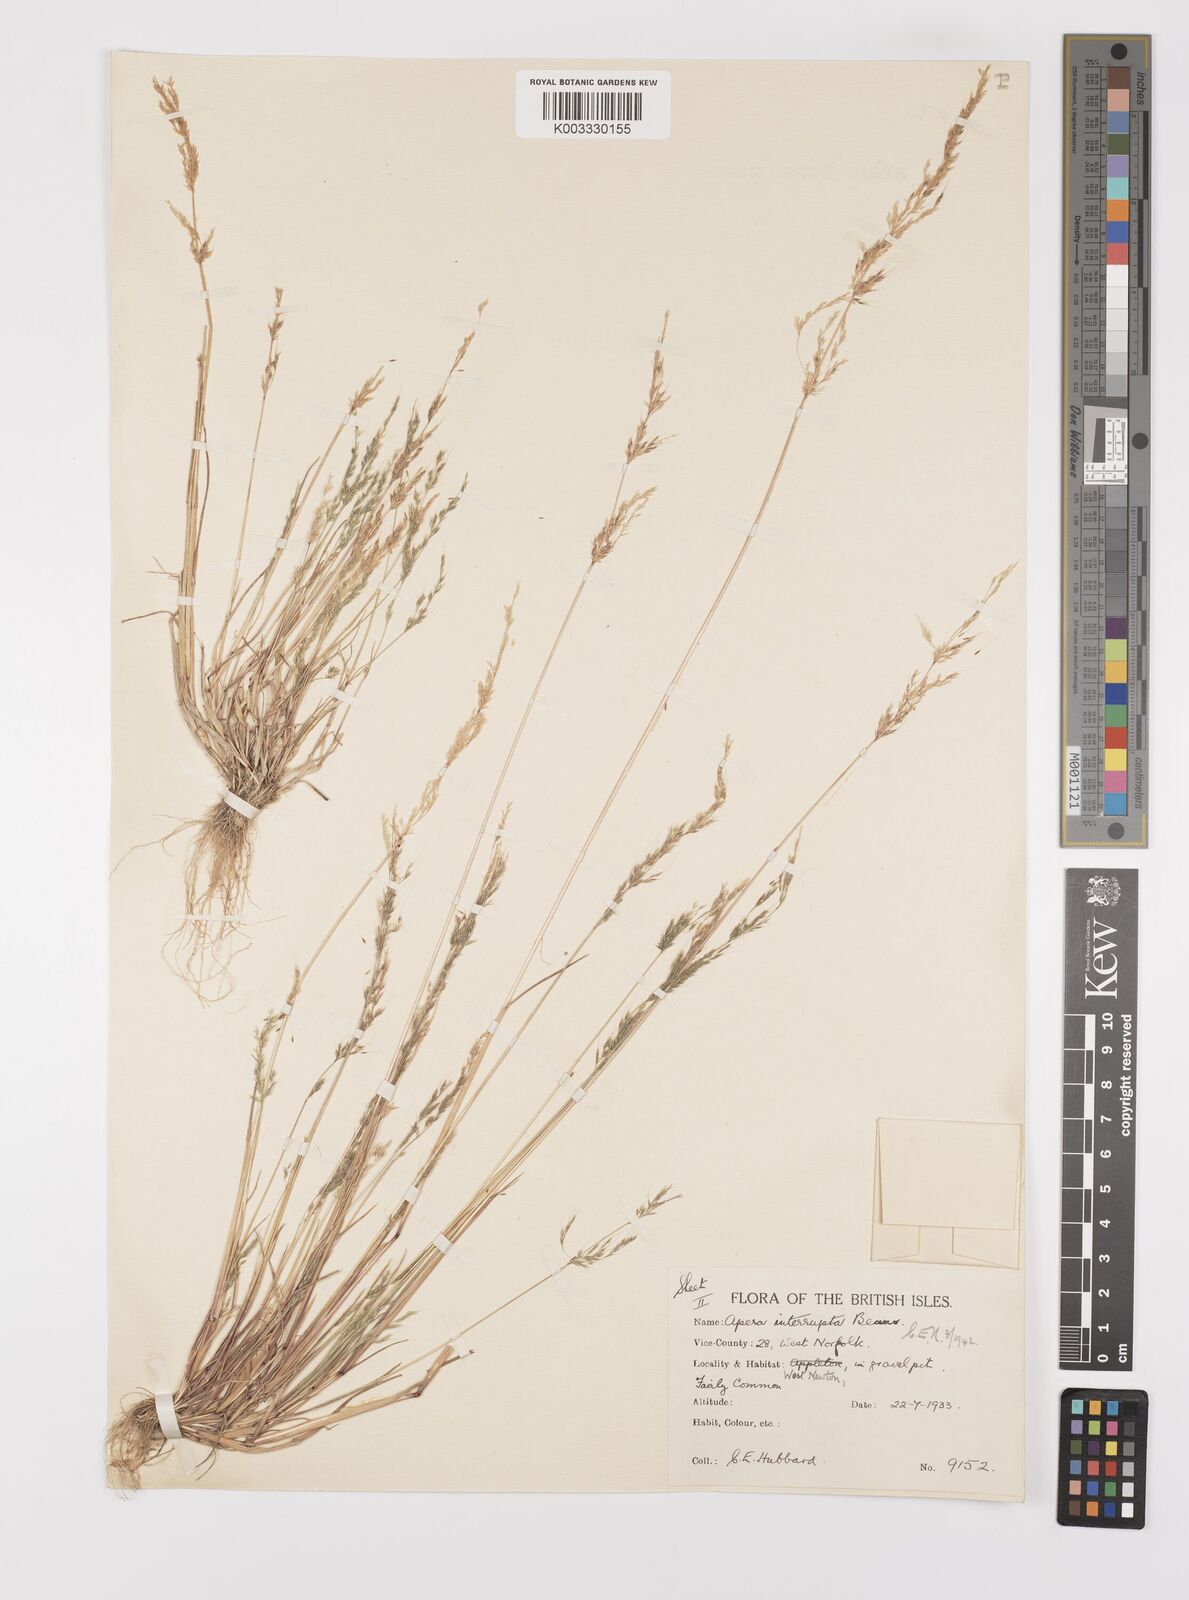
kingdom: Plantae
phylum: Tracheophyta
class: Liliopsida
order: Poales
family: Poaceae
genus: Apera
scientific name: Apera interrupta
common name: Dense silky-bent
